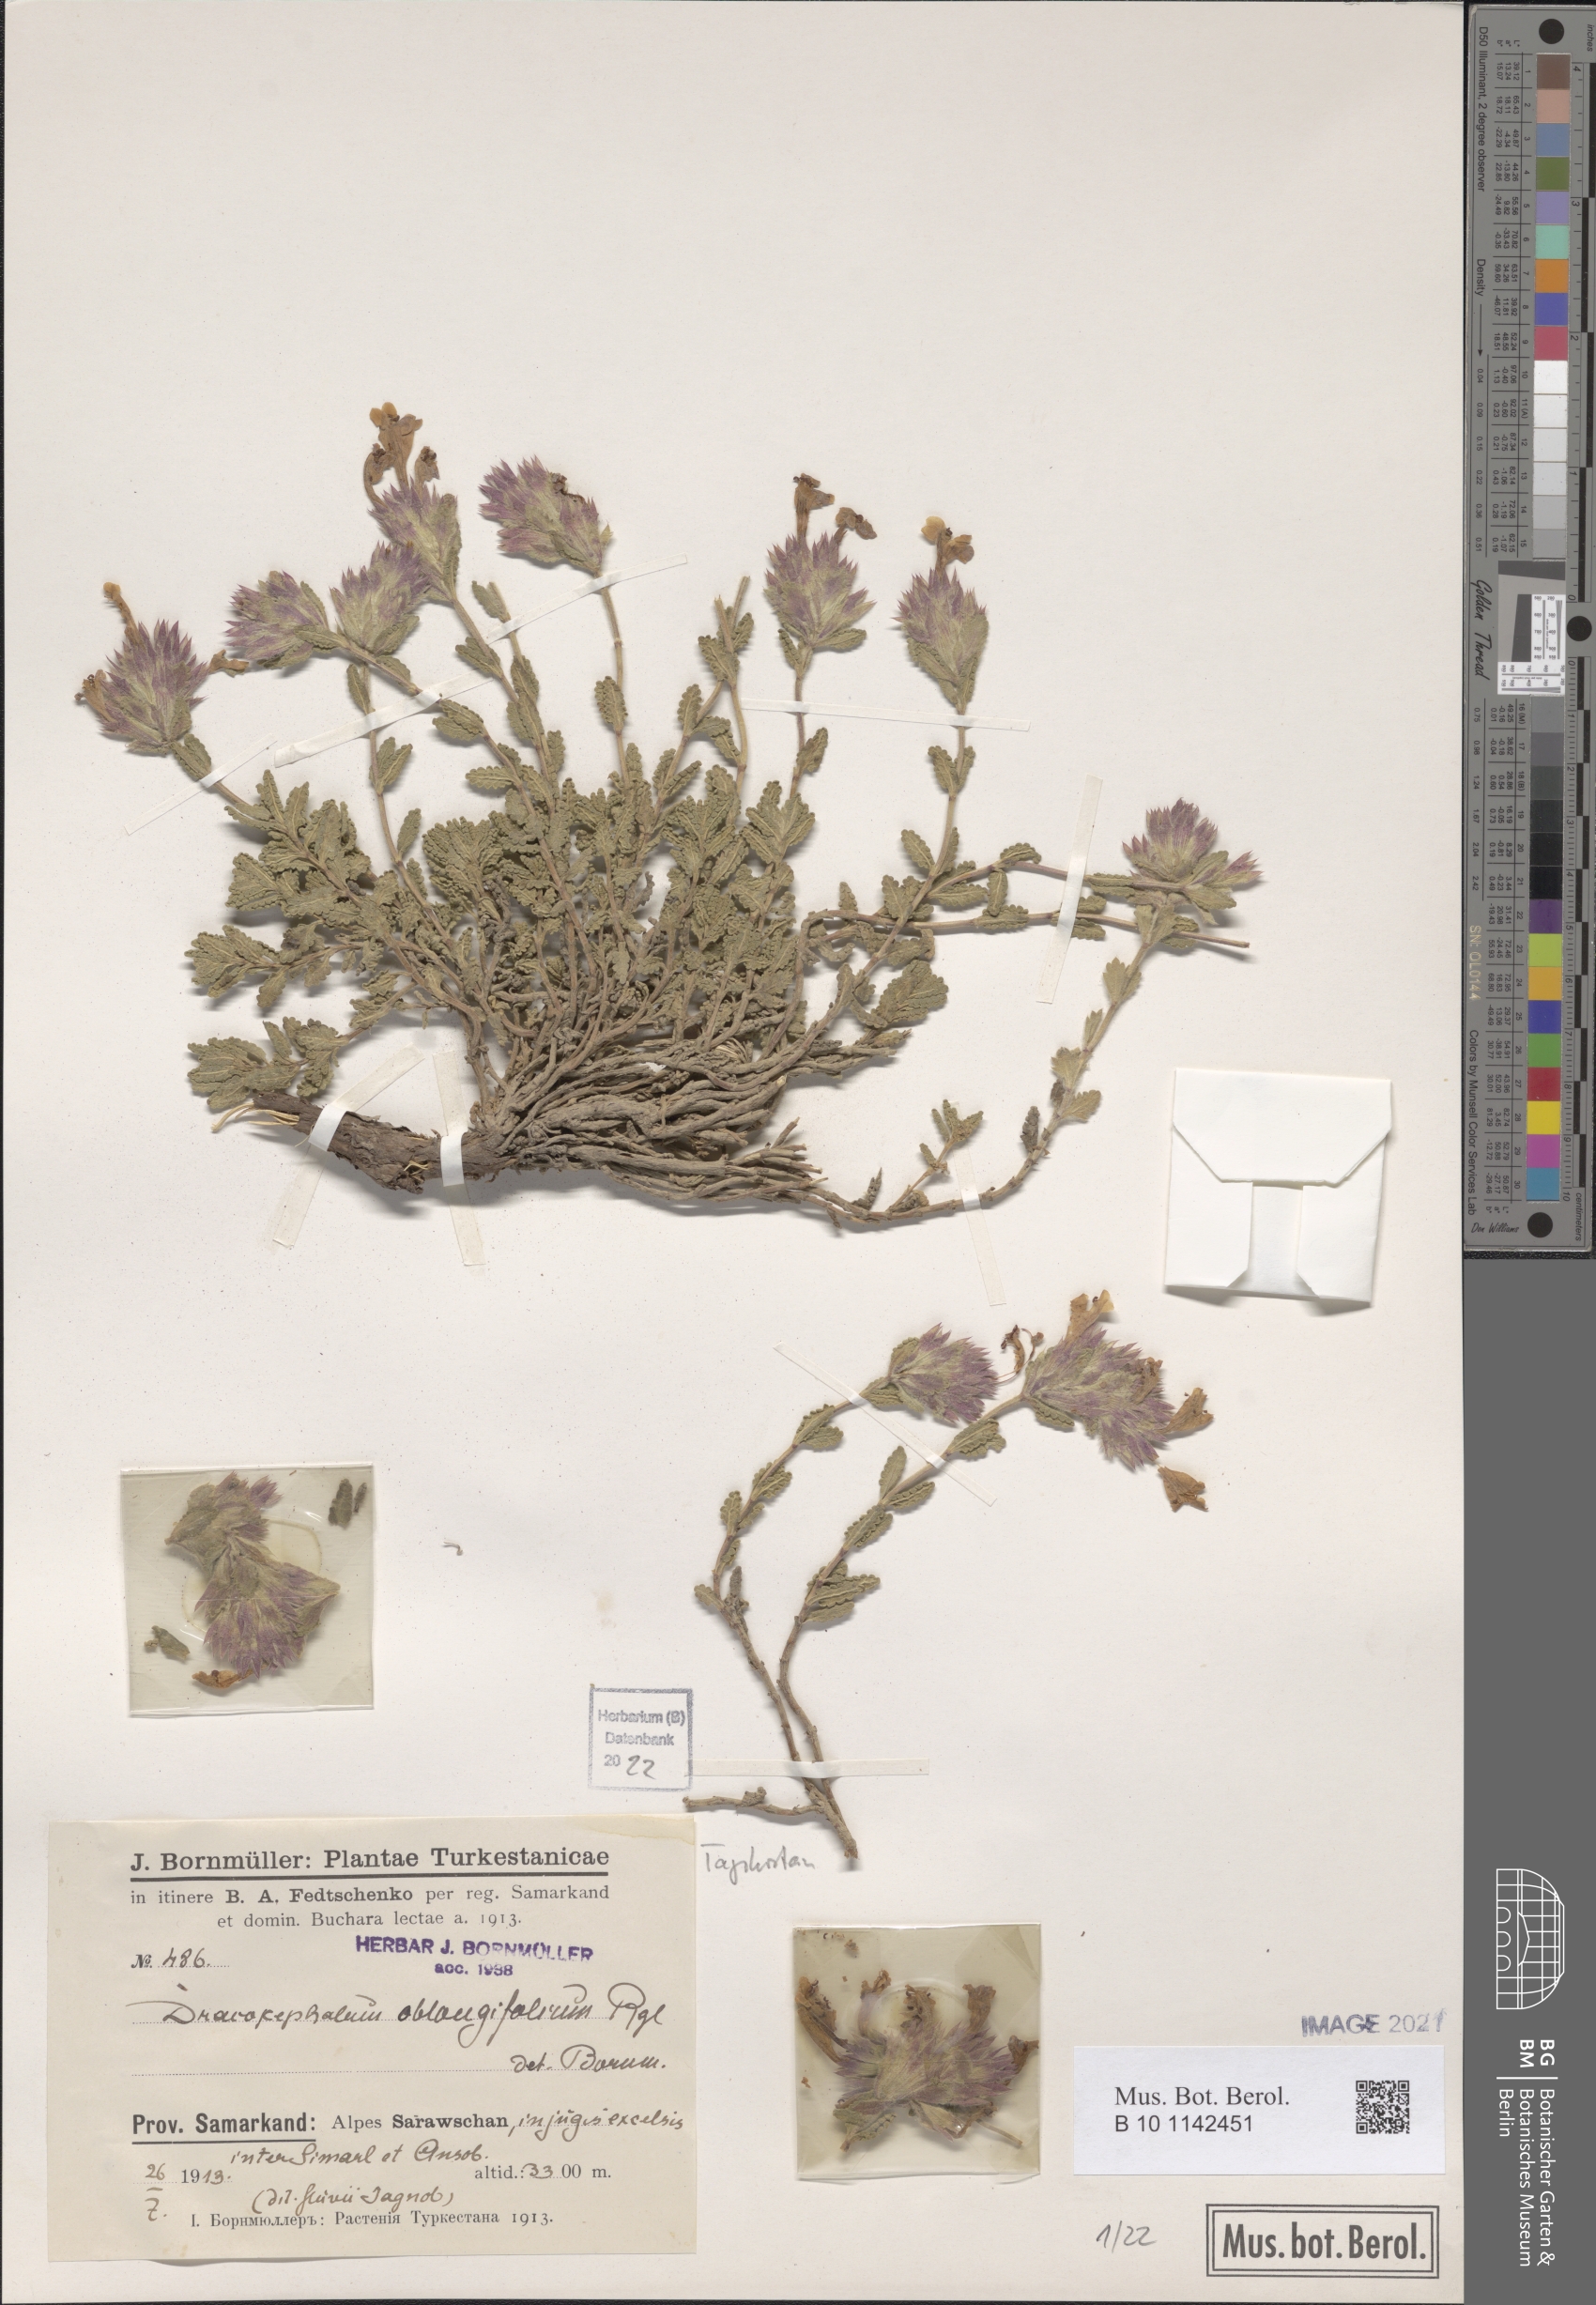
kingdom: Plantae
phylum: Tracheophyta
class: Magnoliopsida
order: Lamiales
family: Lamiaceae
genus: Dracocephalum
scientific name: Dracocephalum oblongifolium
